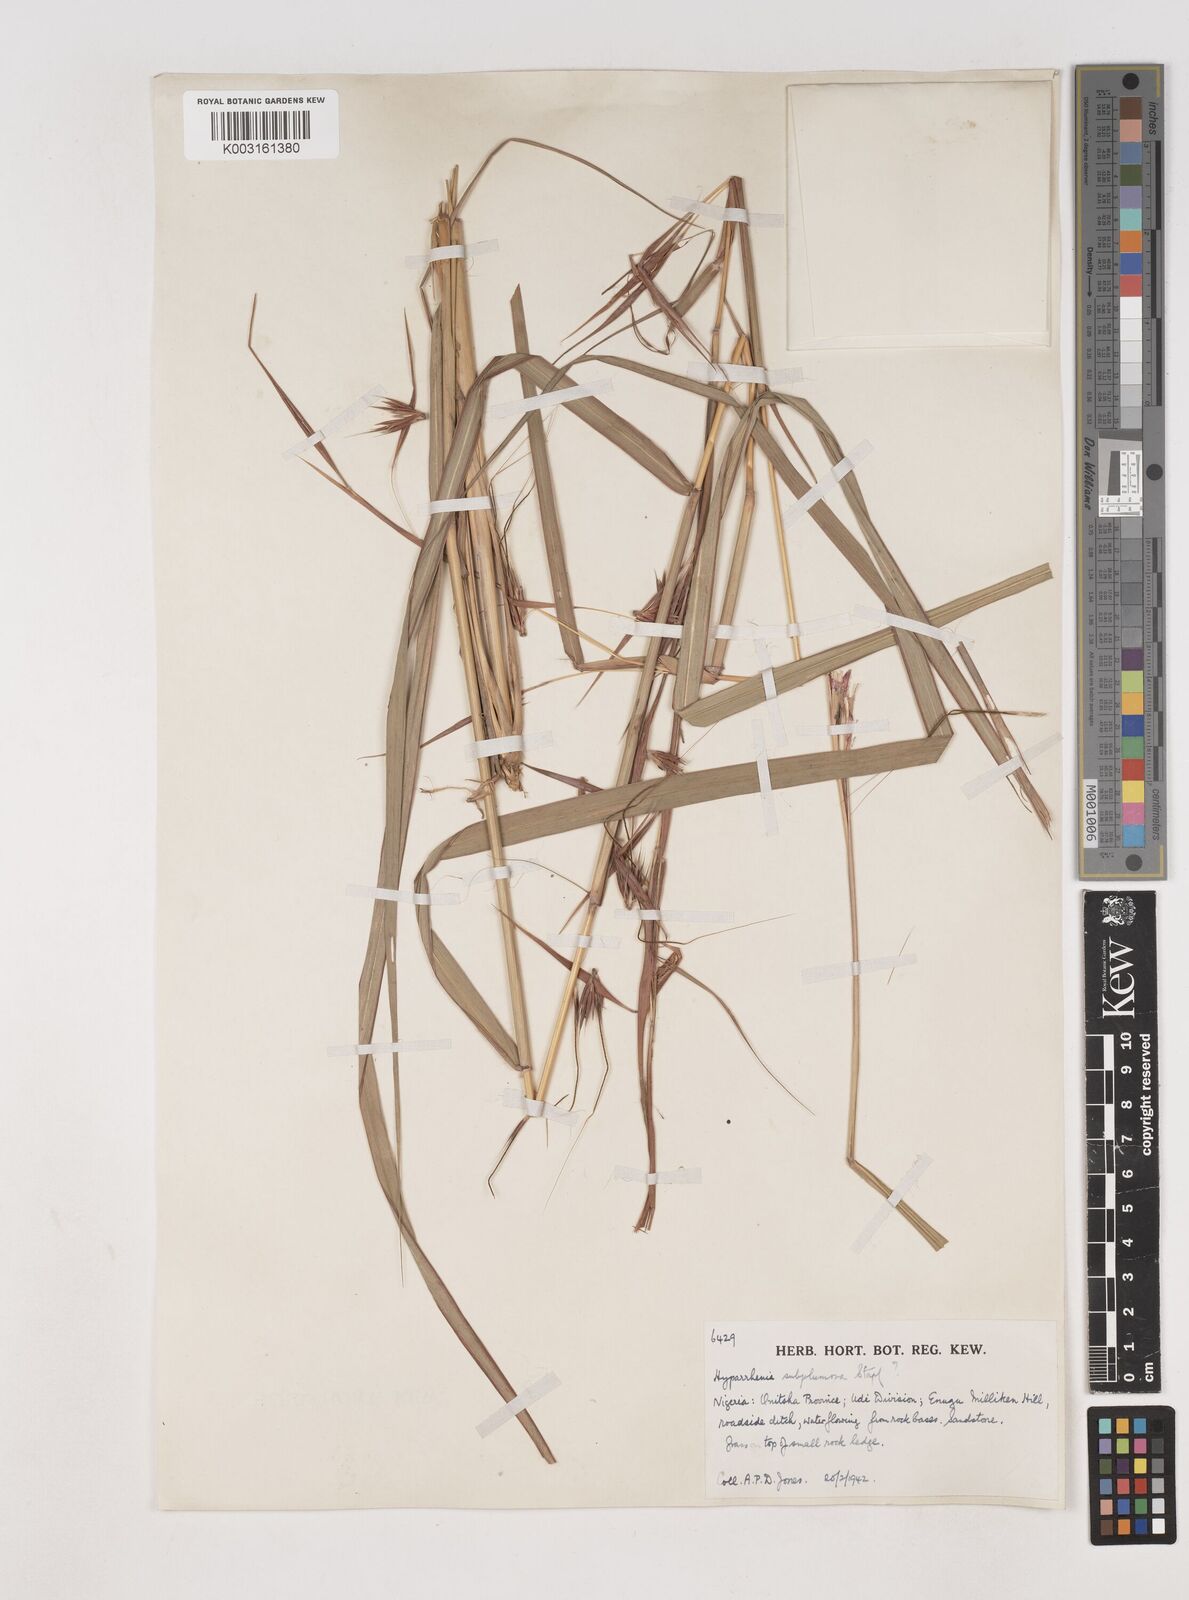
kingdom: Plantae
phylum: Tracheophyta
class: Liliopsida
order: Poales
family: Poaceae
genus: Hyparrhenia
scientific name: Hyparrhenia subplumosa
